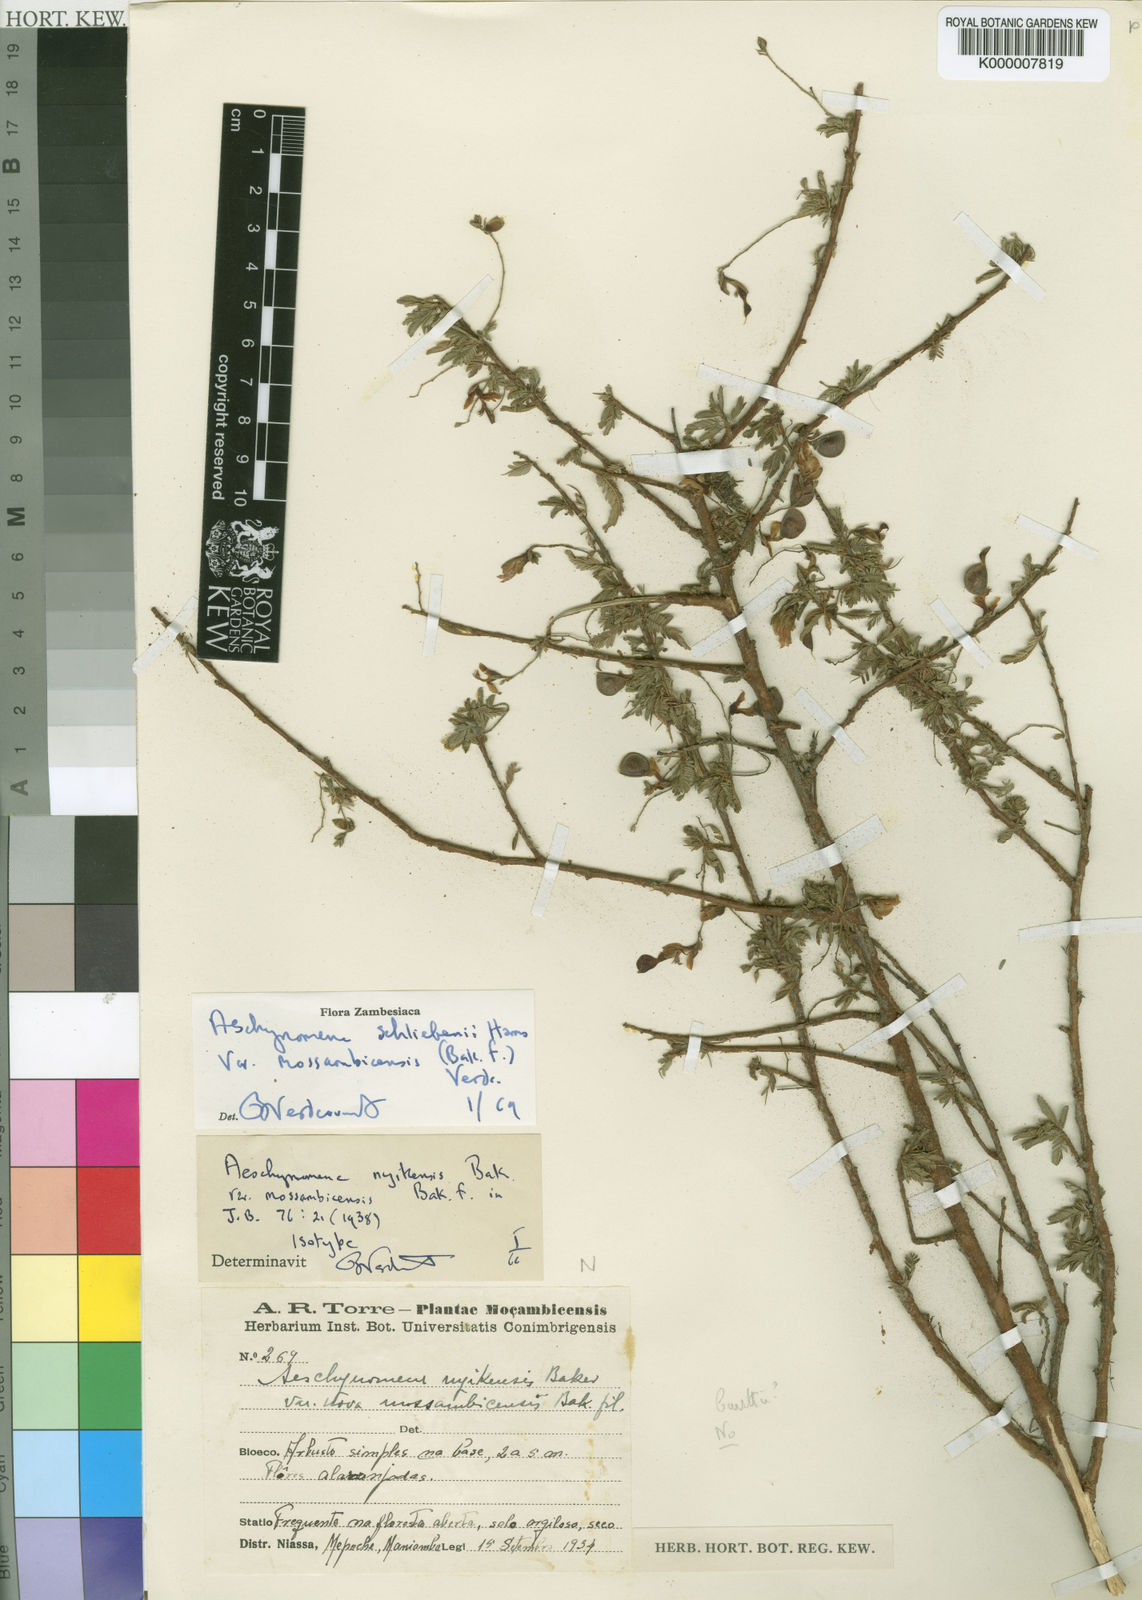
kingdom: Plantae
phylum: Tracheophyta
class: Magnoliopsida
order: Fabales
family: Fabaceae
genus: Aeschynomene
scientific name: Aeschynomene schliebenii
